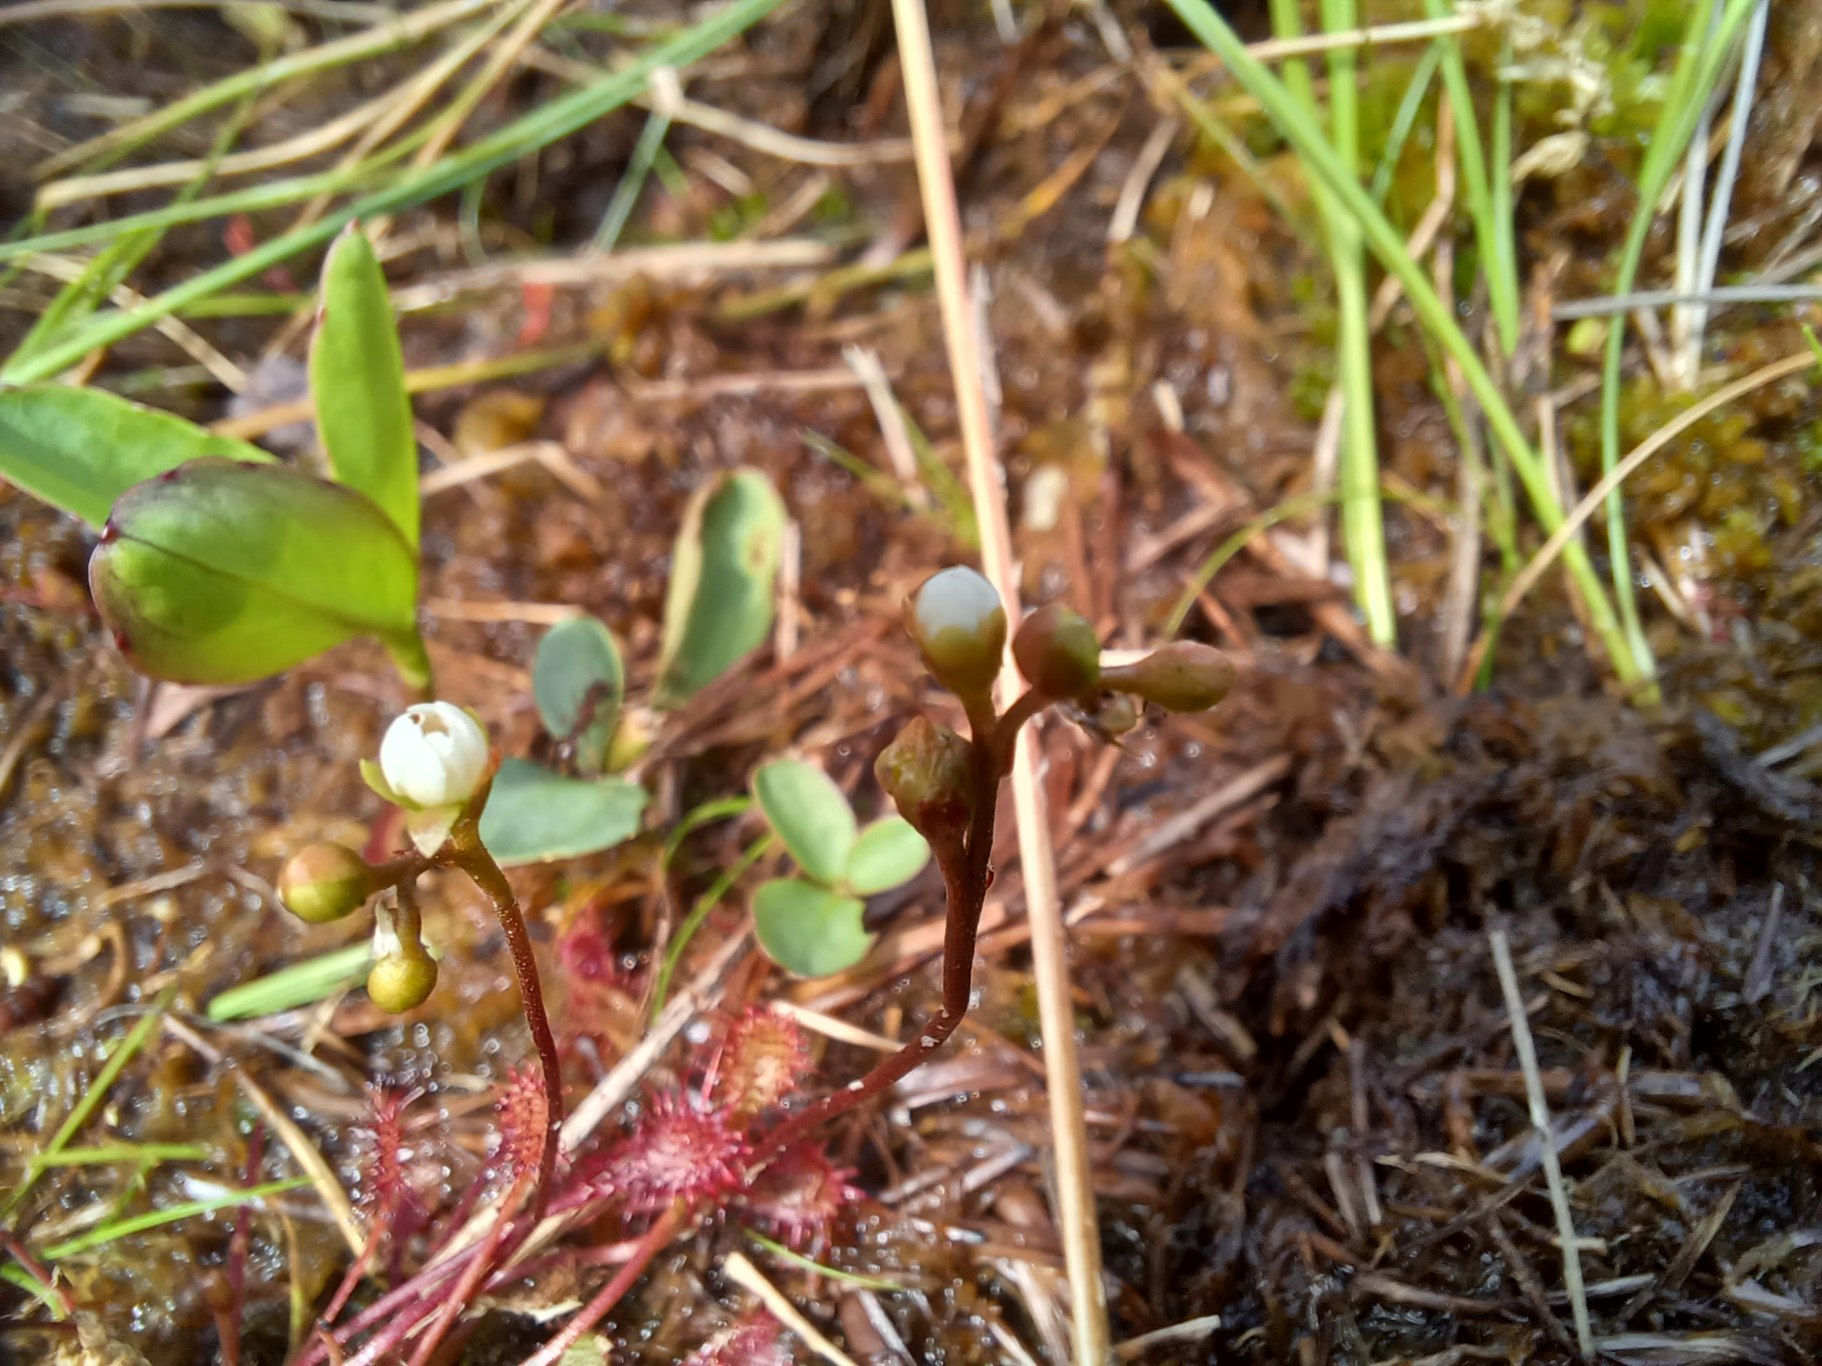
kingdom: Plantae
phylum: Tracheophyta
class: Magnoliopsida
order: Caryophyllales
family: Droseraceae
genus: Drosera
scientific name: Drosera intermedia
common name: Liden soldug
